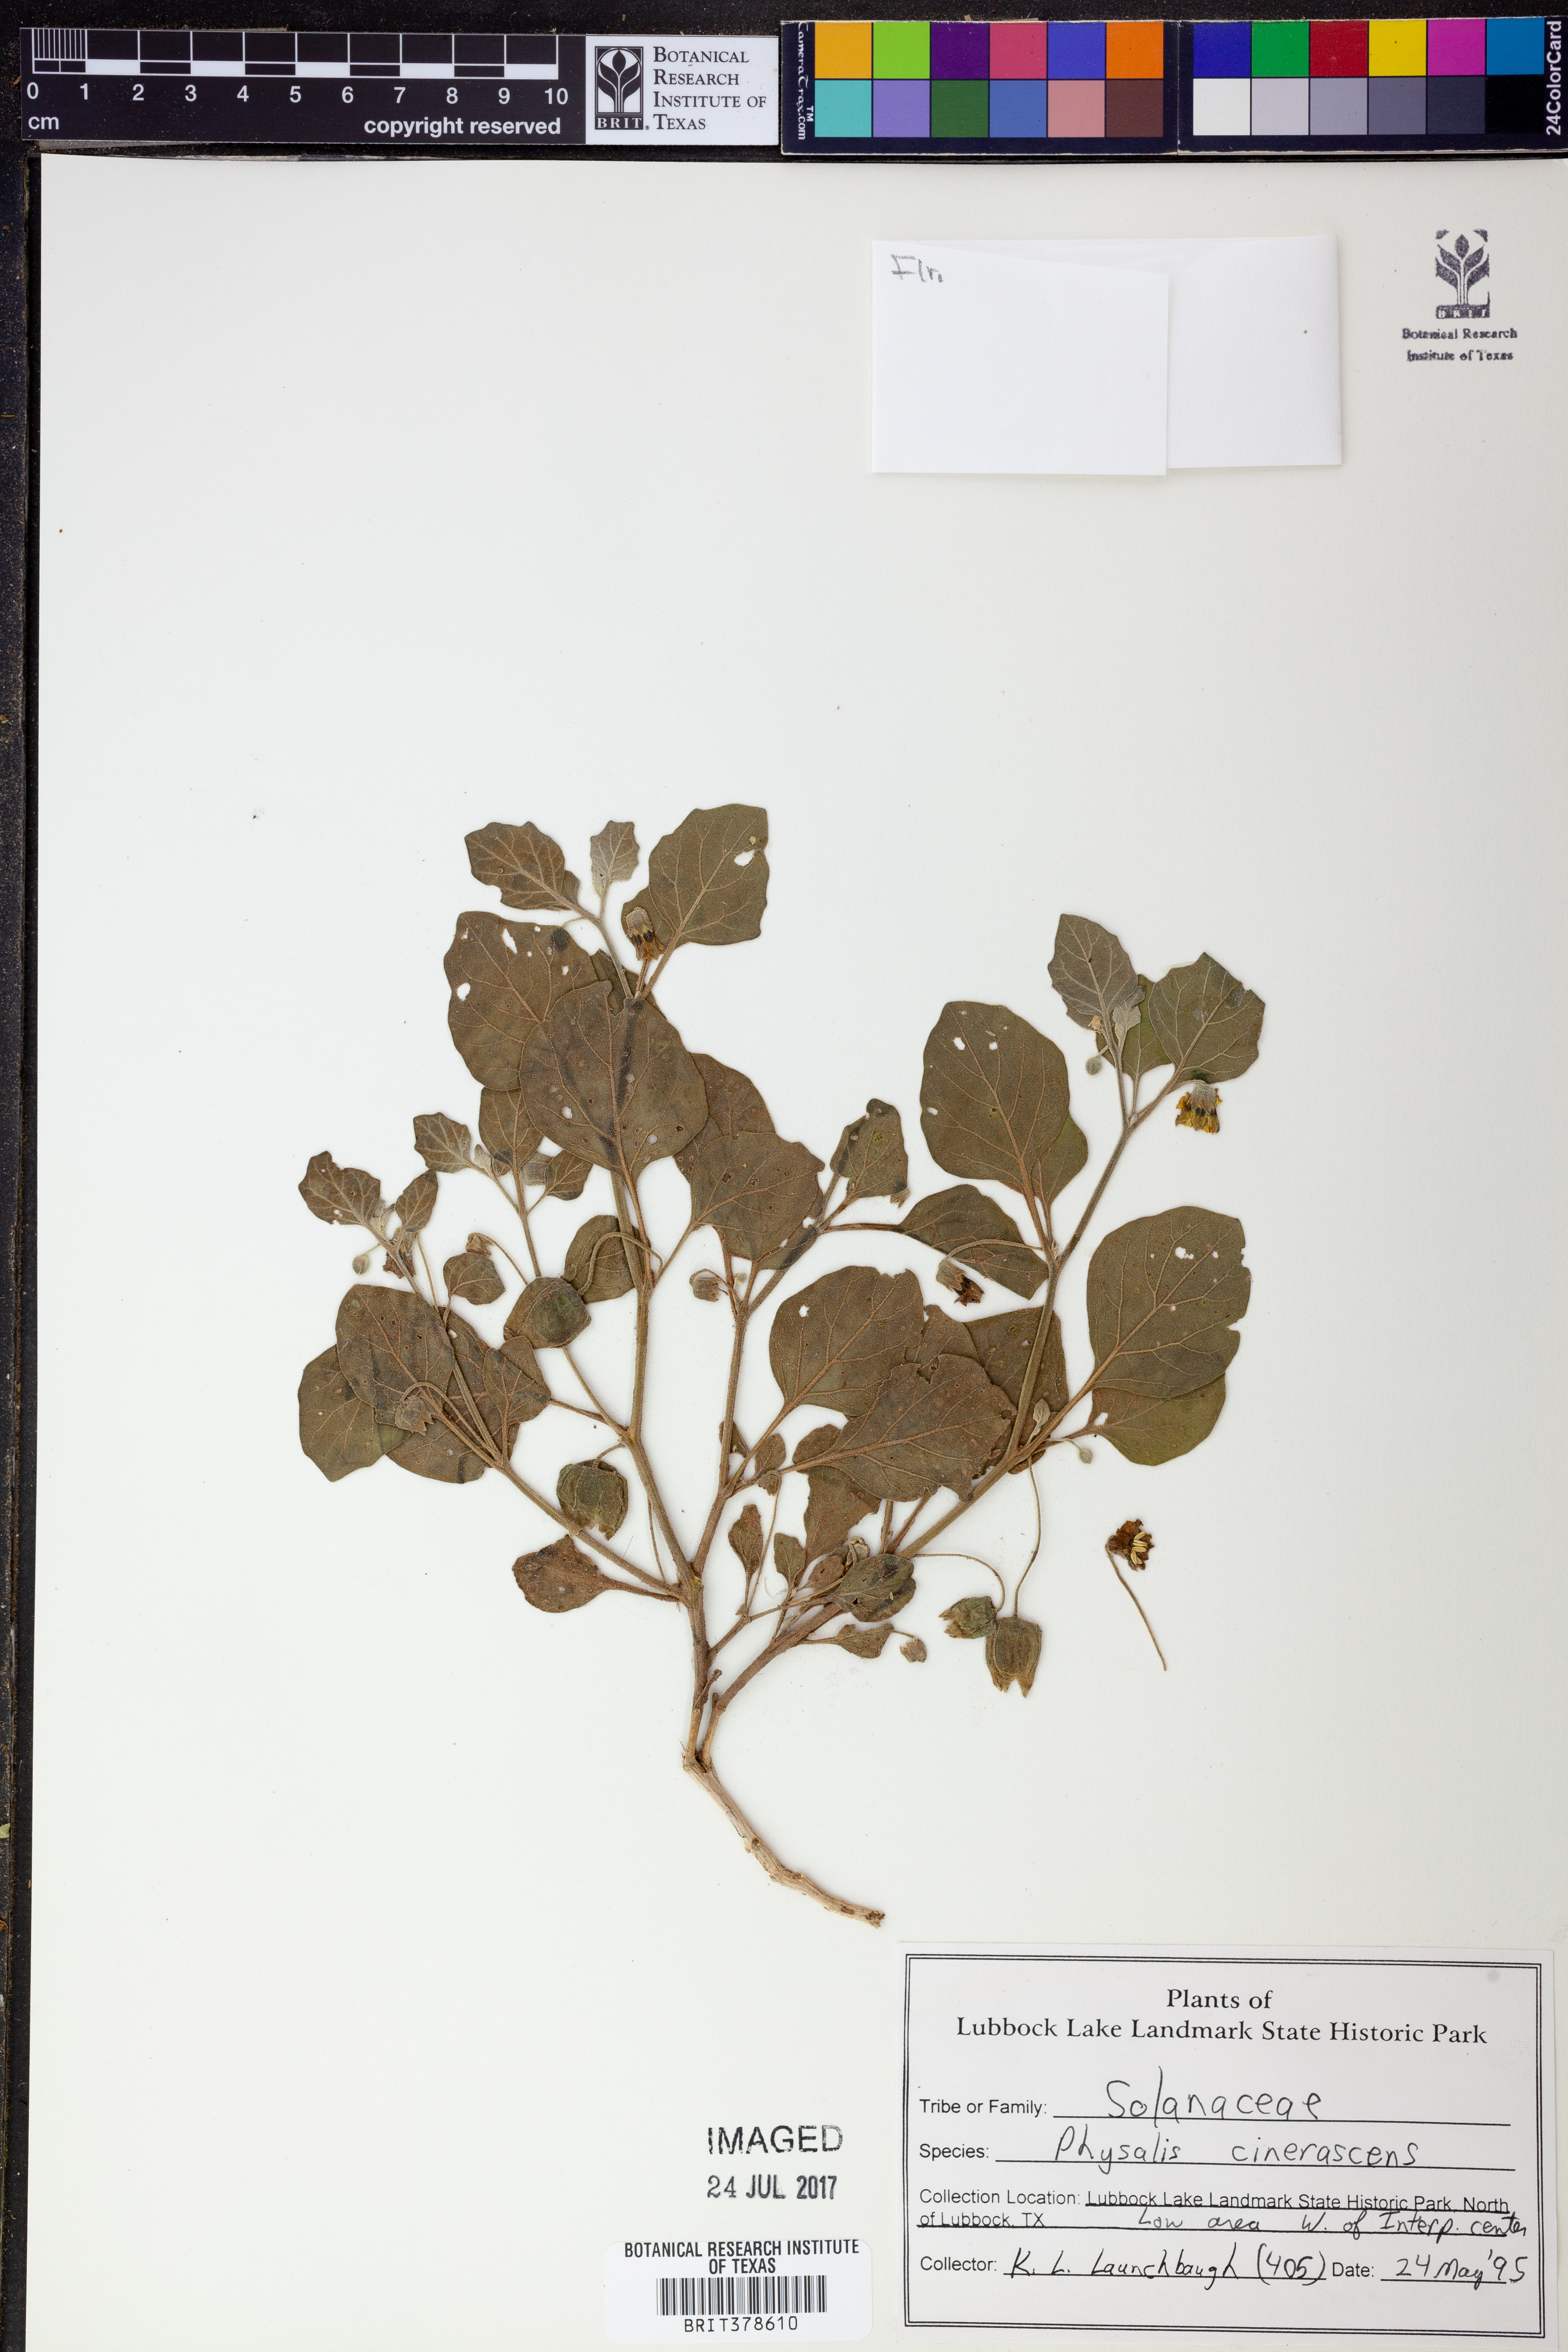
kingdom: Plantae
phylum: Tracheophyta
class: Magnoliopsida
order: Solanales
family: Solanaceae
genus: Physalis
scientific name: Physalis cinerascens
